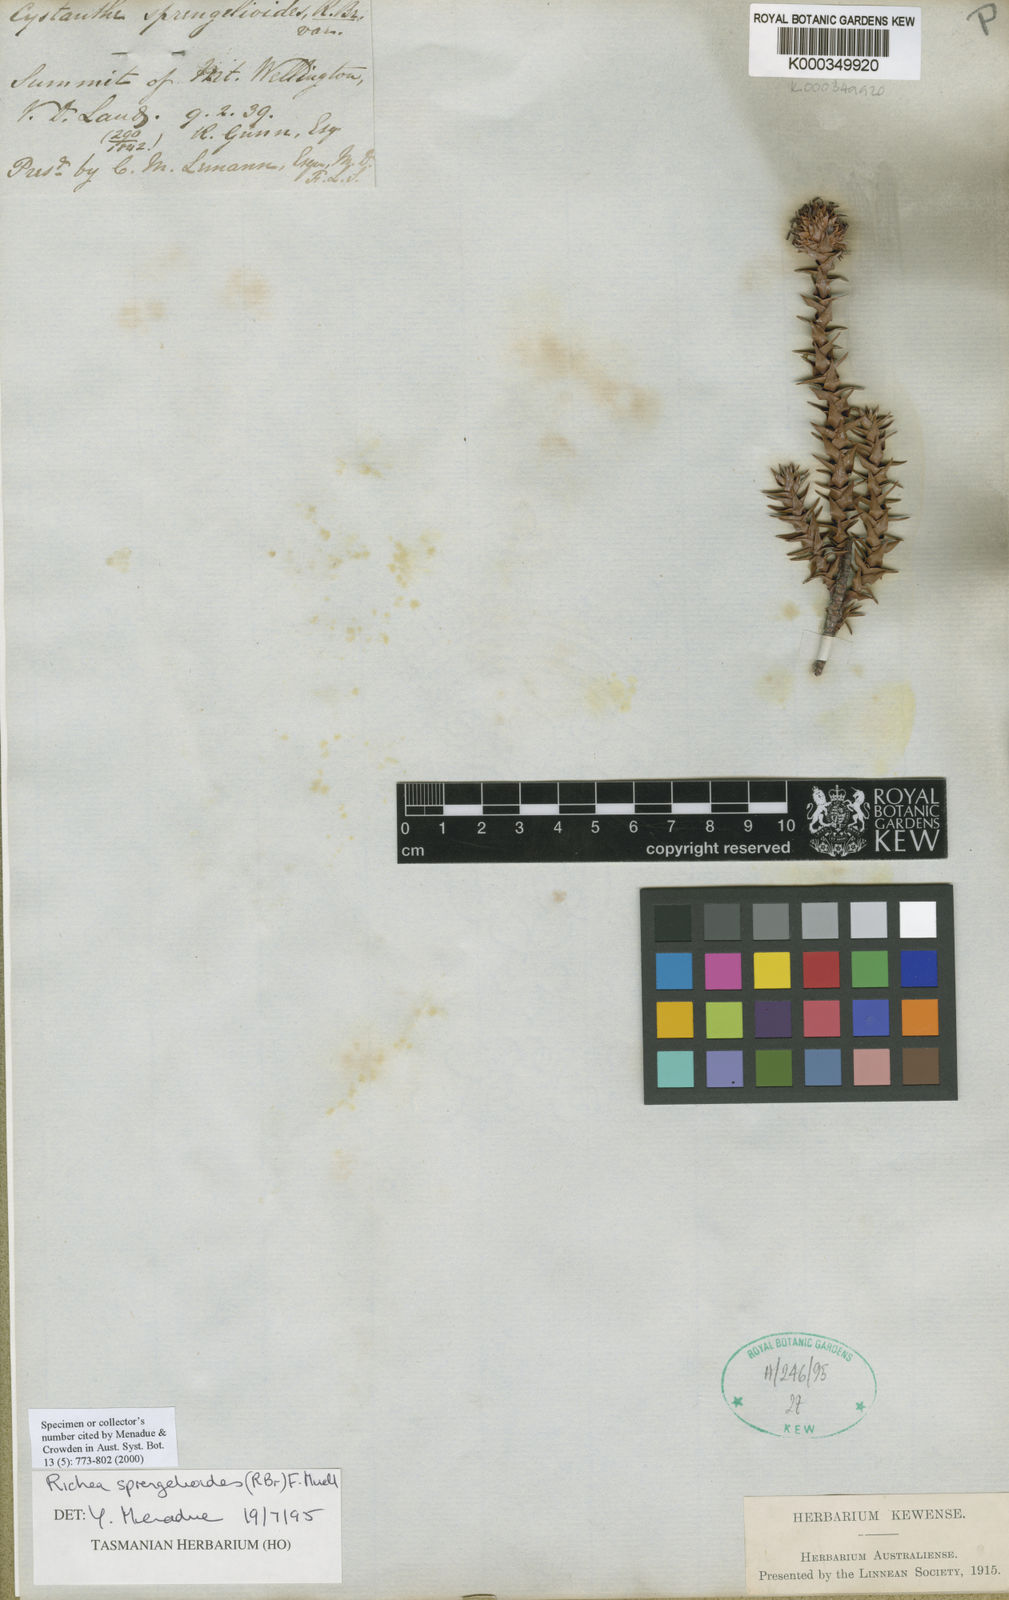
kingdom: Plantae
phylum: Tracheophyta
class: Magnoliopsida
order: Ericales
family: Ericaceae
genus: Dracophyllum
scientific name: Dracophyllum sprengelioides
